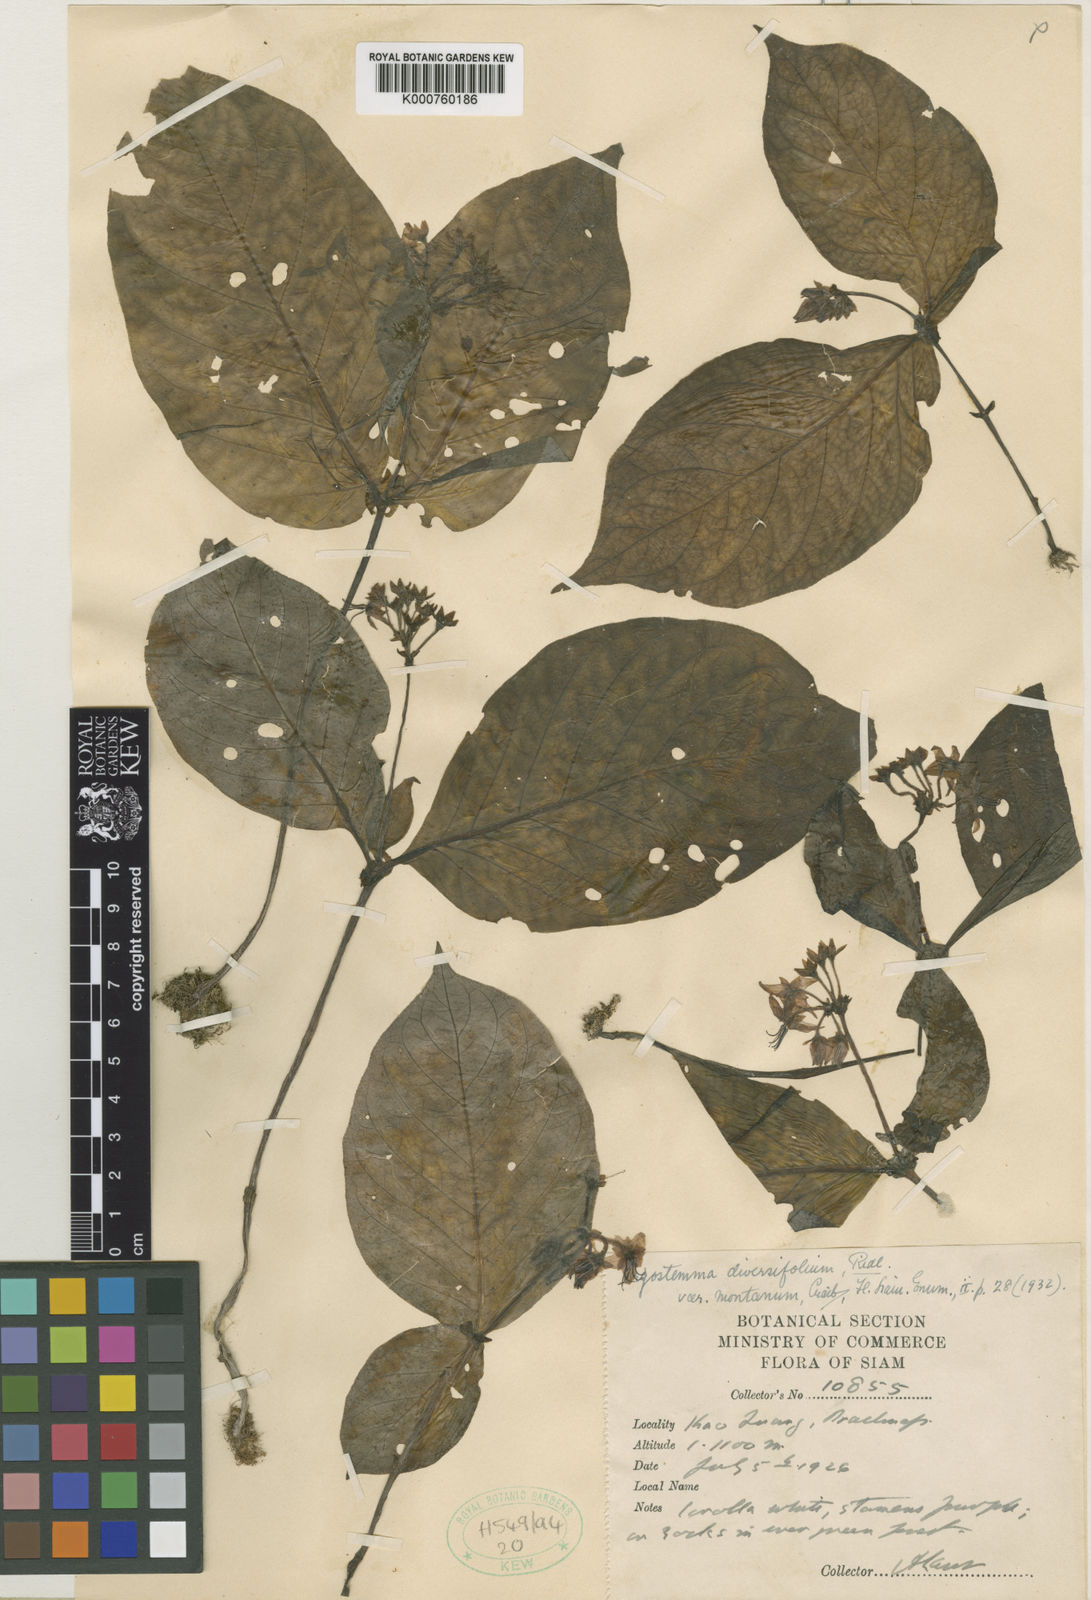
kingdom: Plantae
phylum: Tracheophyta
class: Magnoliopsida
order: Gentianales
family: Rubiaceae
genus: Argostemma
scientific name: Argostemma diversifolium
